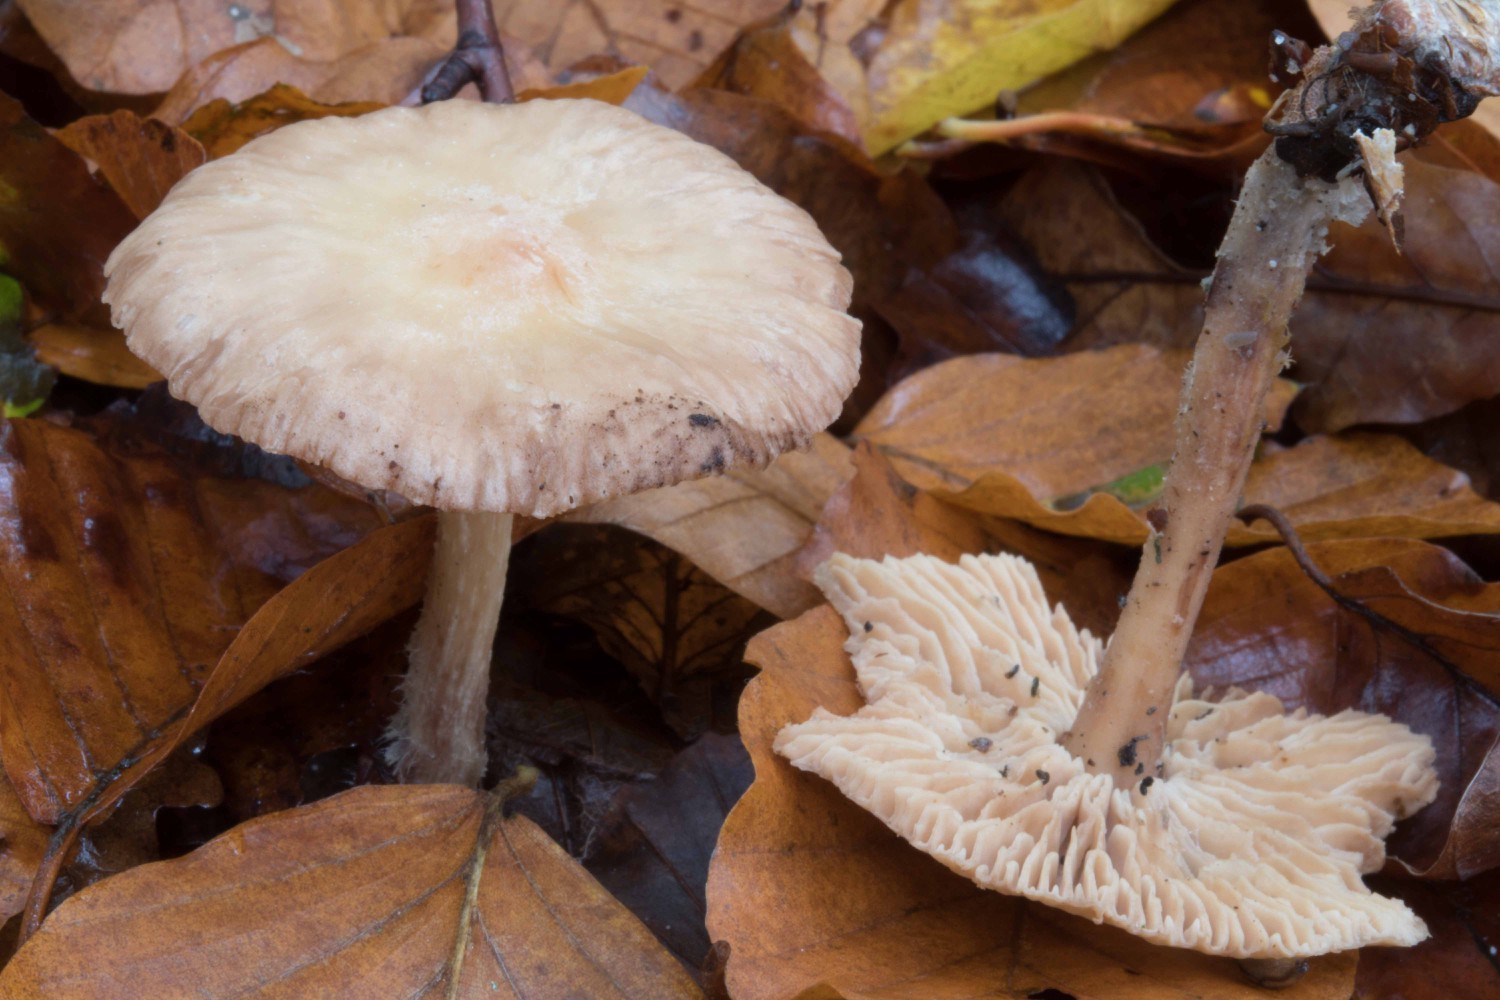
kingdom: Fungi
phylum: Basidiomycota
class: Agaricomycetes
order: Agaricales
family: Omphalotaceae
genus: Collybiopsis
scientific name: Collybiopsis peronata
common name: bestøvlet fladhat
